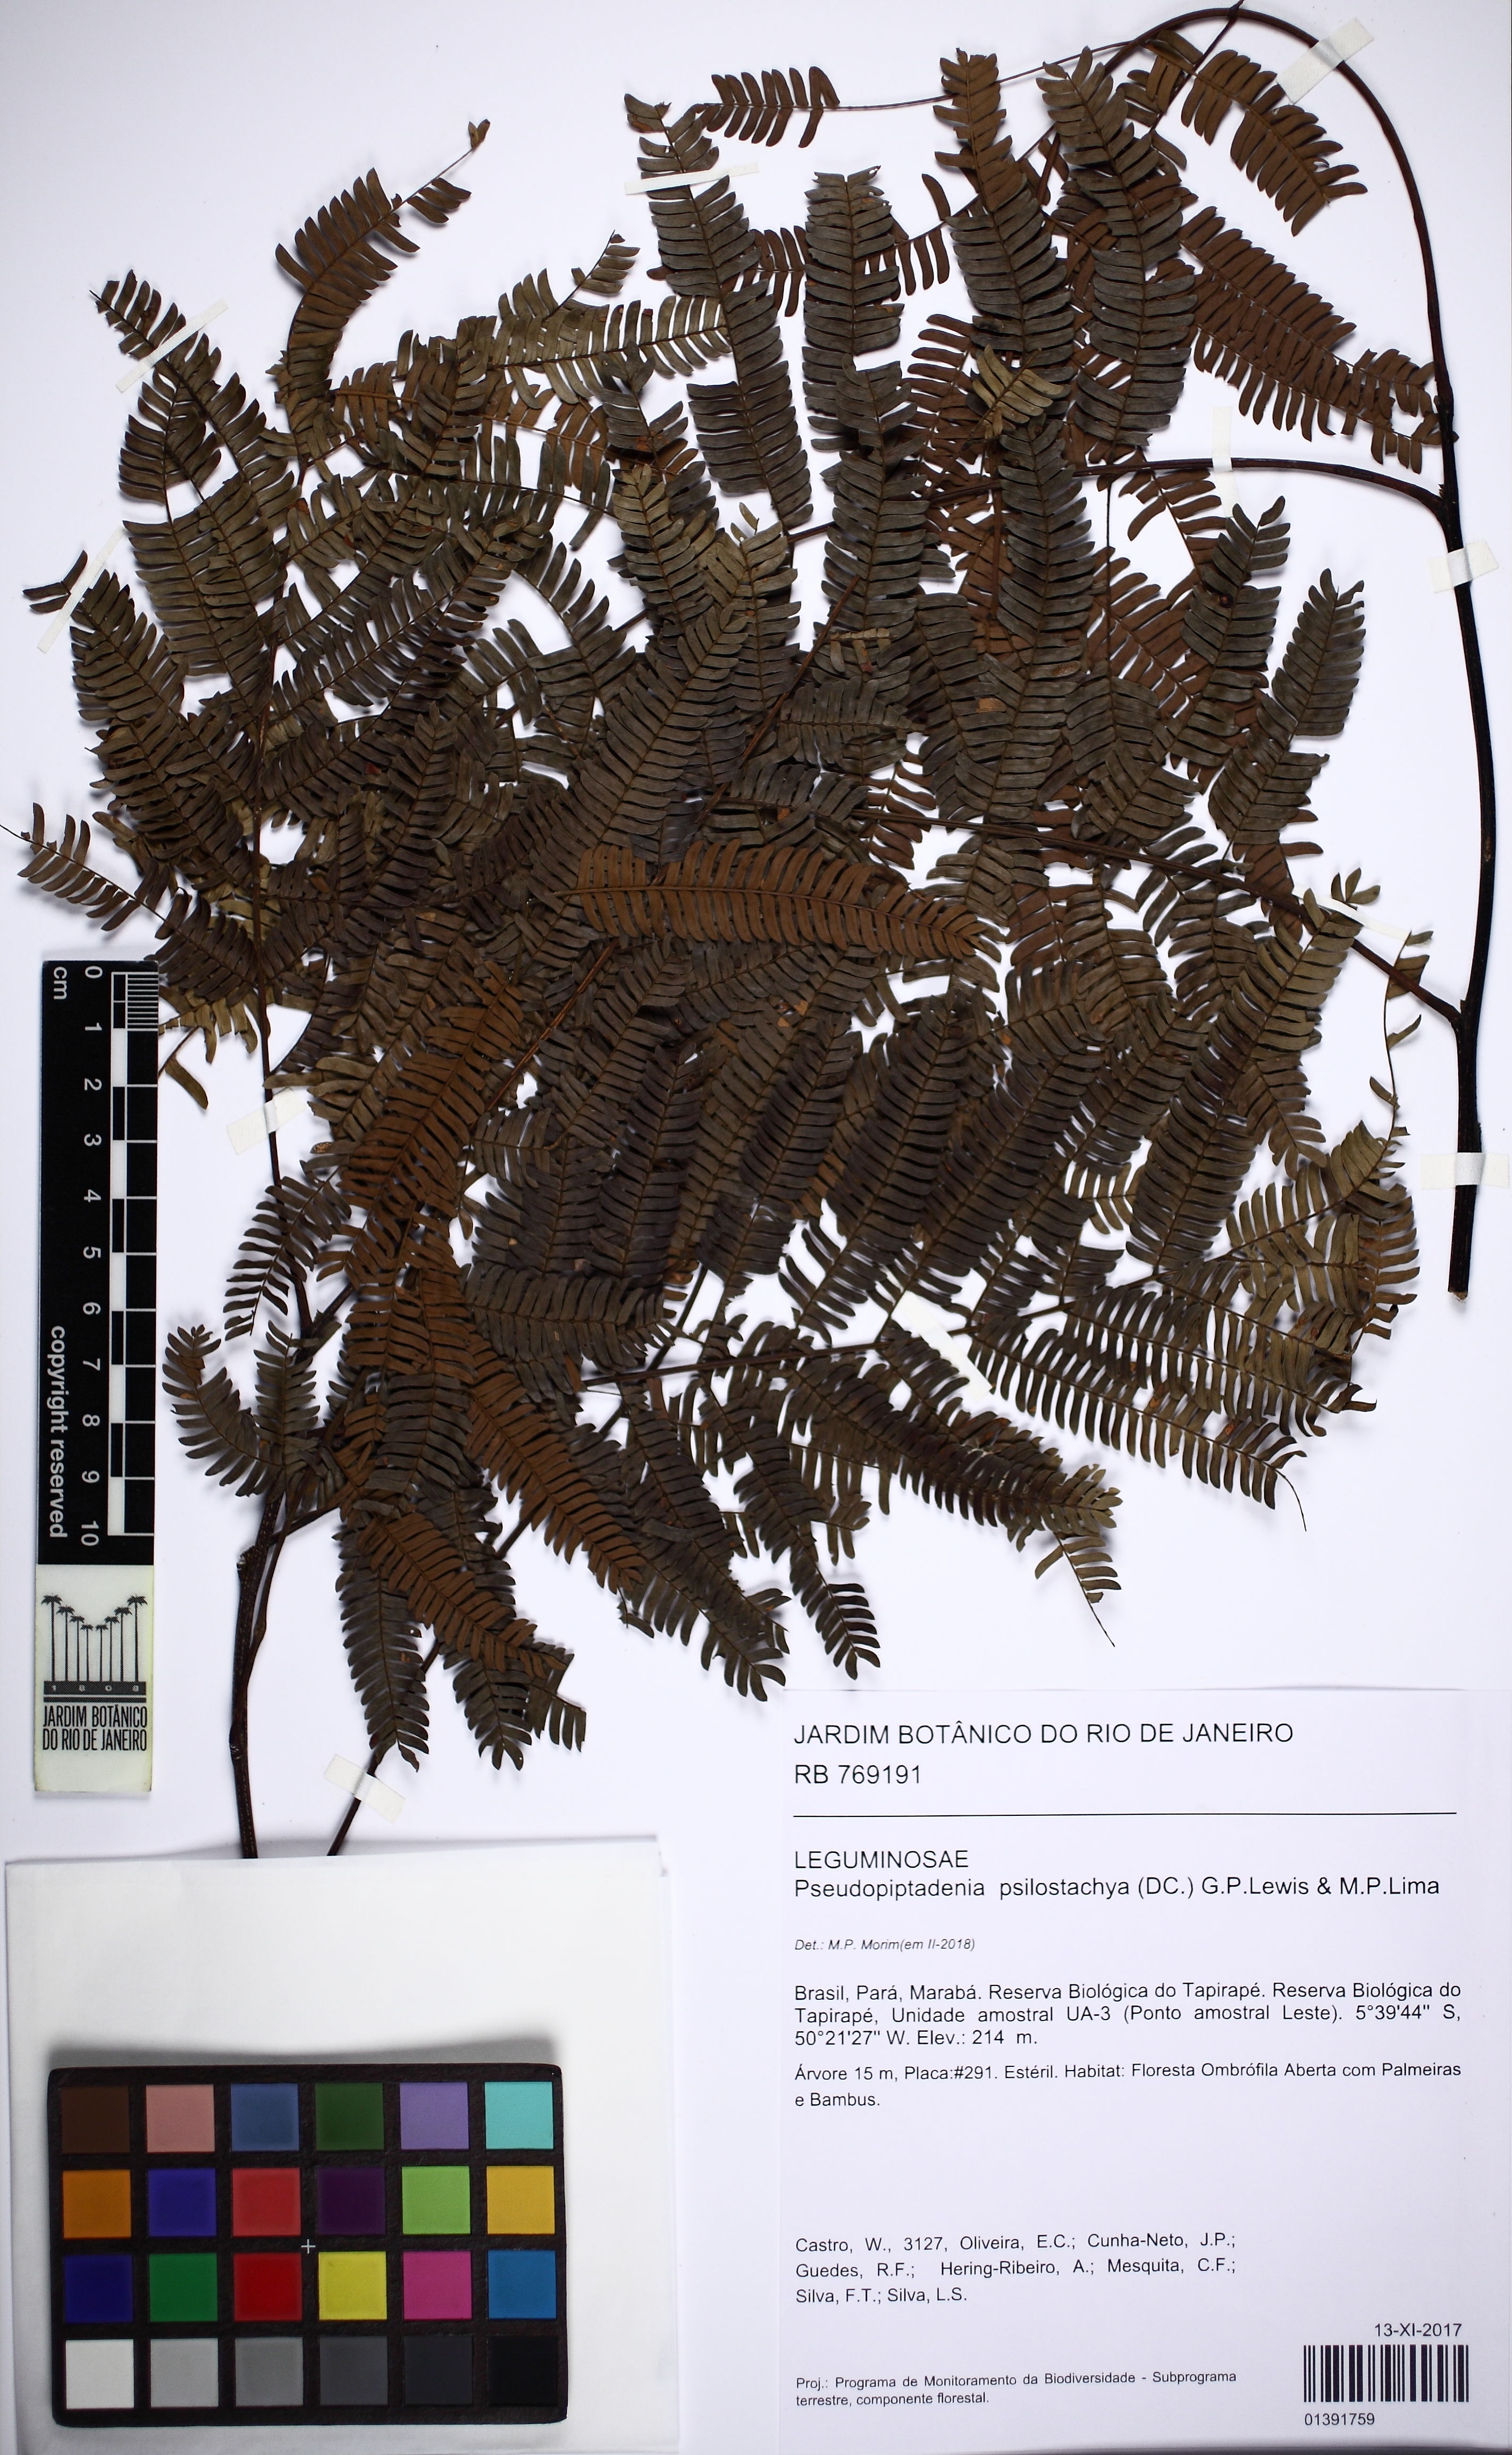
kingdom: Plantae
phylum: Tracheophyta
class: Magnoliopsida
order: Fabales
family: Fabaceae
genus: Pseudopiptadenia
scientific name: Pseudopiptadenia psilostachya
